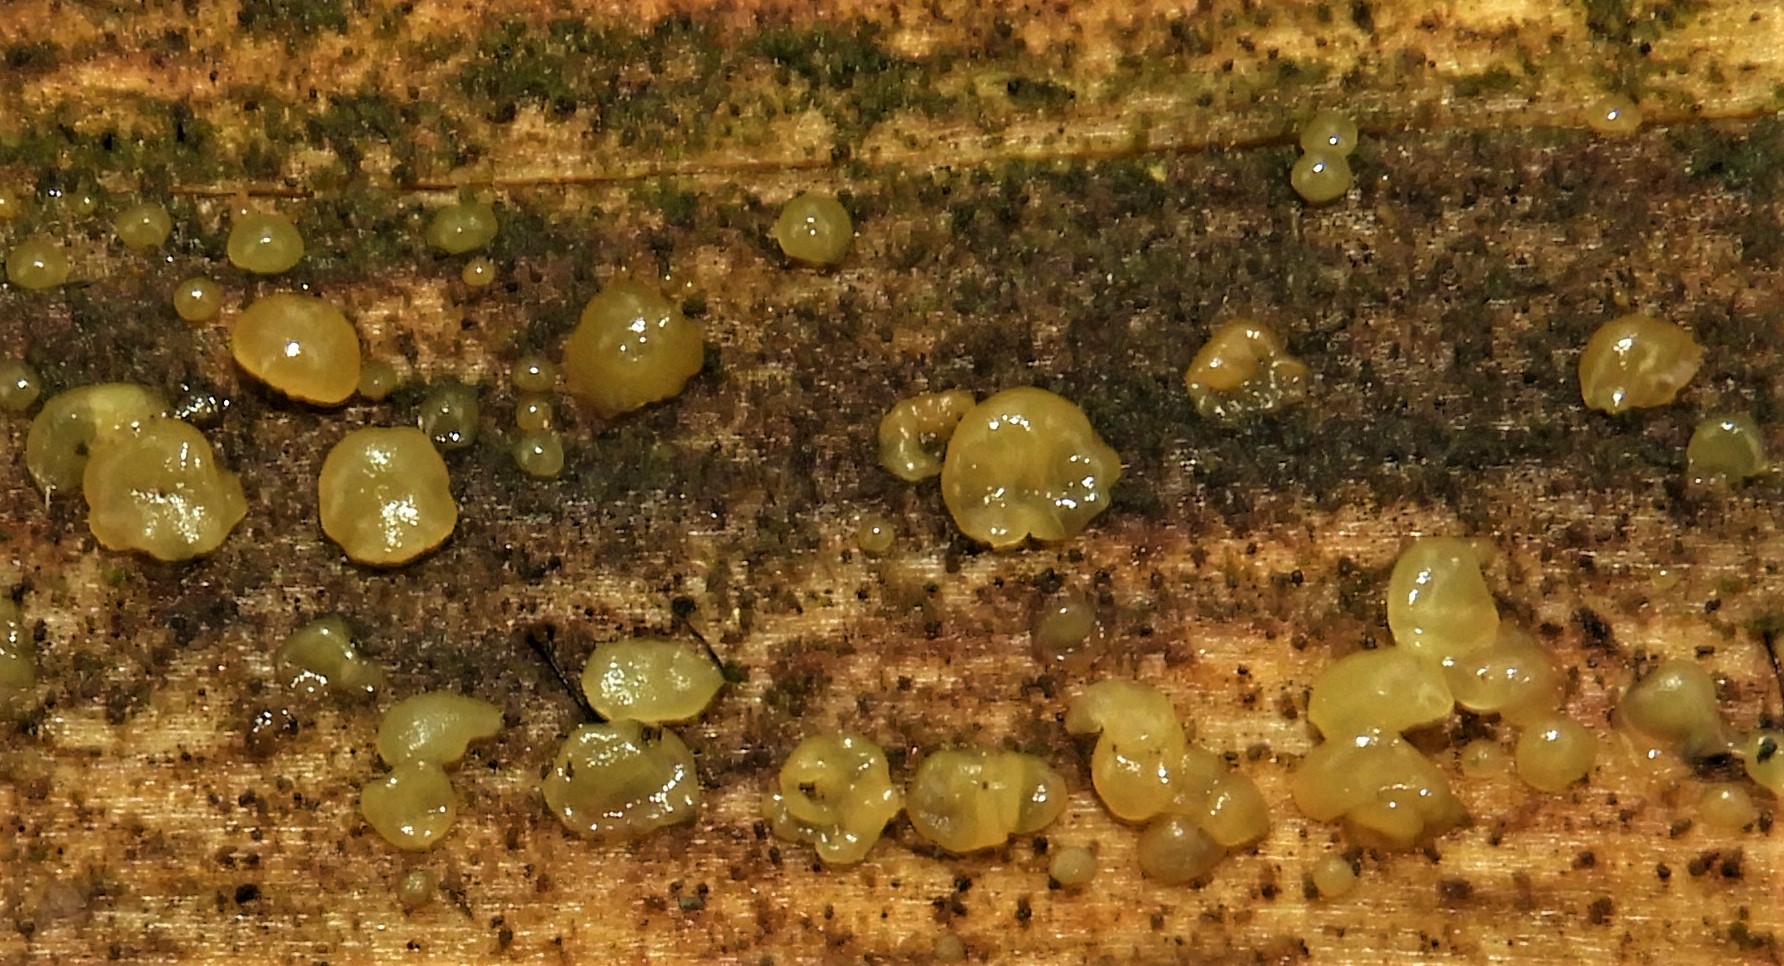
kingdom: Fungi
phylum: Basidiomycota
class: Dacrymycetes
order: Dacrymycetales
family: Dacrymycetaceae
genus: Dacrymyces
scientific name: Dacrymyces
